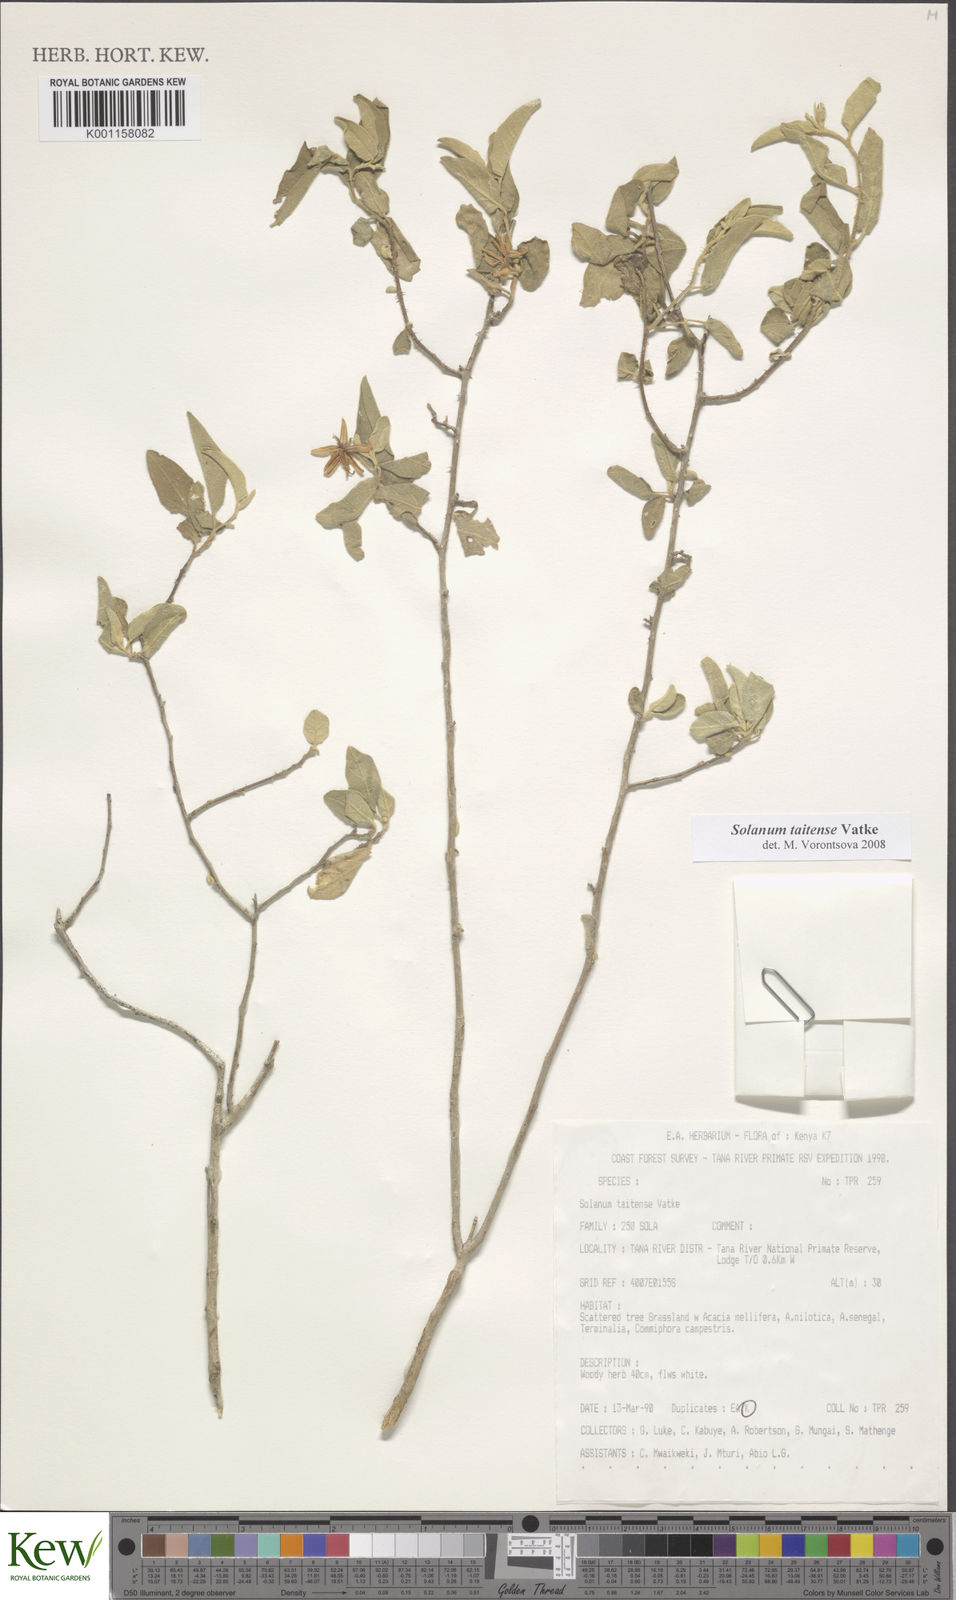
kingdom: Plantae
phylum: Tracheophyta
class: Magnoliopsida
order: Solanales
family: Solanaceae
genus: Solanum
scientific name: Solanum taitense
